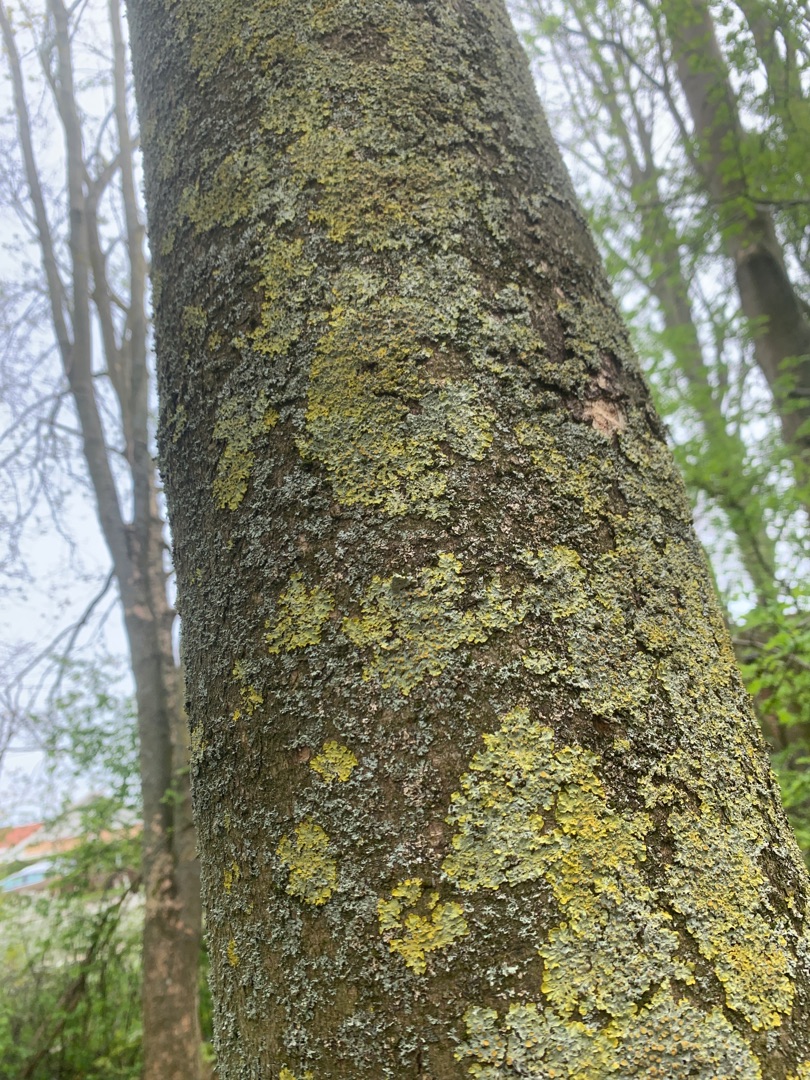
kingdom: Fungi
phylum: Ascomycota
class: Lecanoromycetes
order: Teloschistales
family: Teloschistaceae
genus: Xanthoria
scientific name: Xanthoria parietina
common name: Almindelig væggelav
